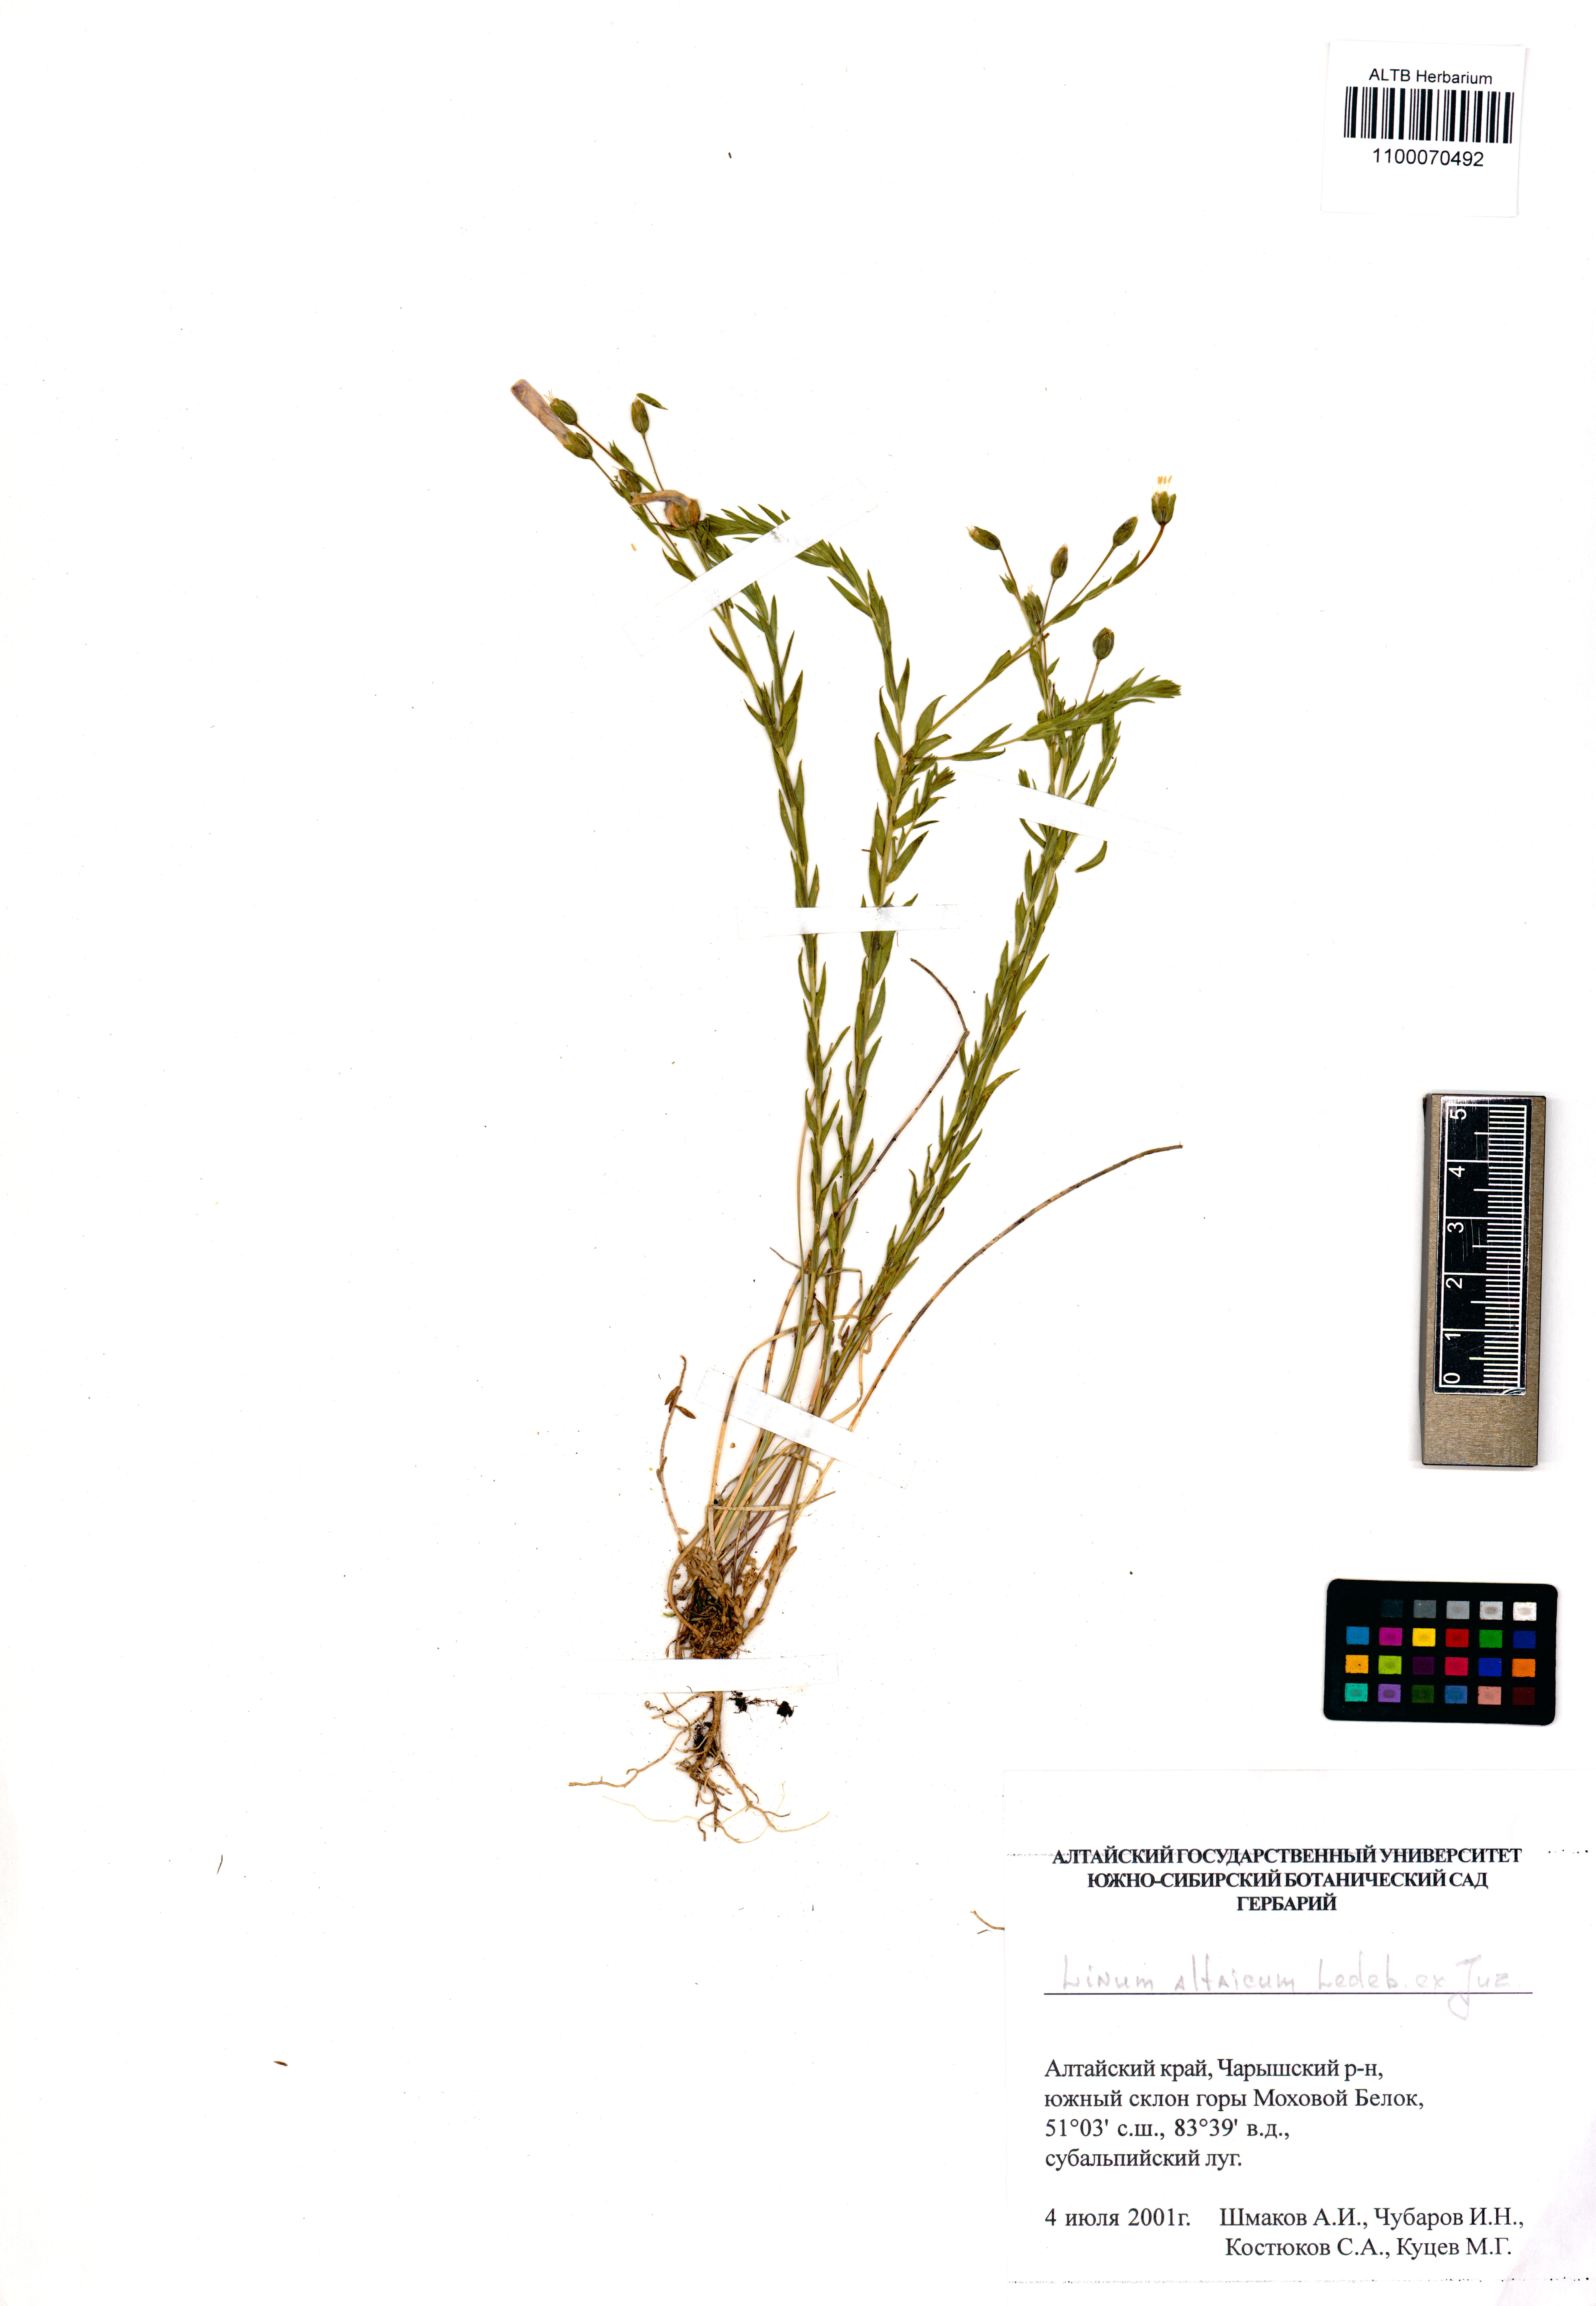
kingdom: Plantae
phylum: Tracheophyta
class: Magnoliopsida
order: Malpighiales
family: Linaceae
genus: Linum
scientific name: Linum altaicum
